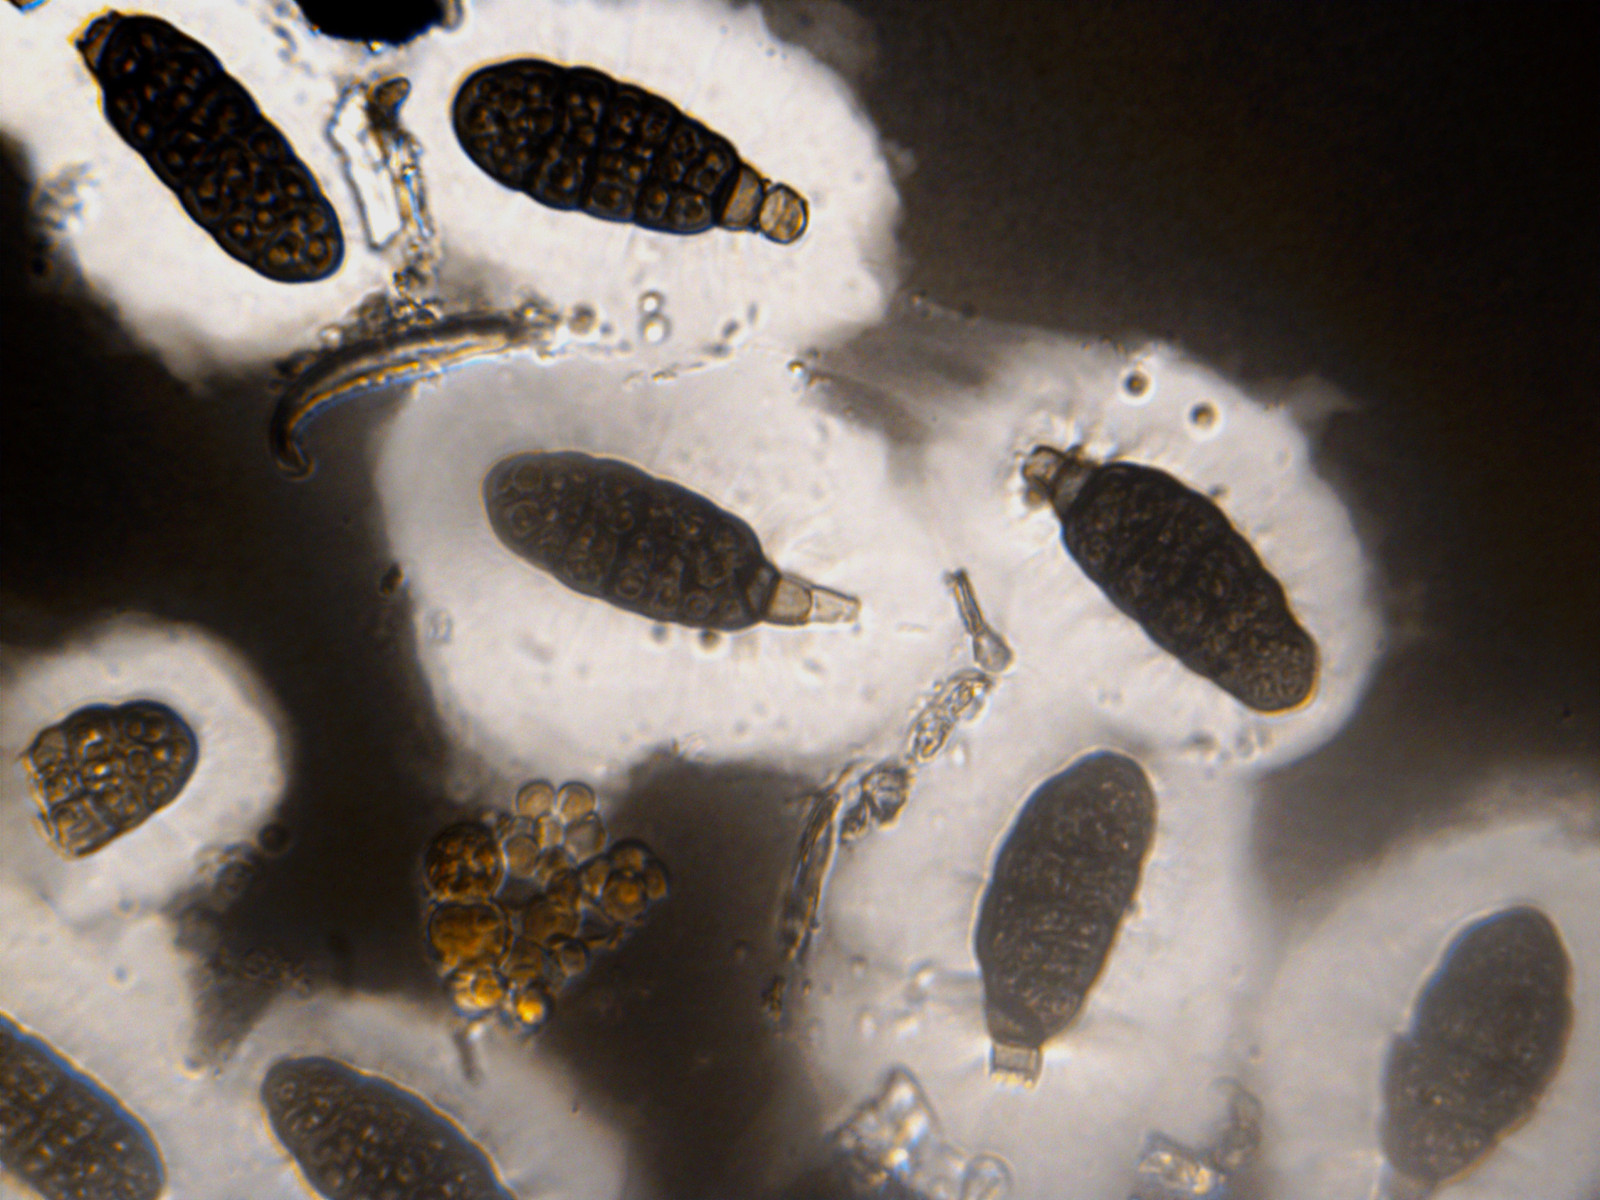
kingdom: Fungi
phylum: Ascomycota
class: Dothideomycetes
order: Pleosporales
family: Pleomassariaceae
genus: Splanchnonema
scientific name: Splanchnonema argus
